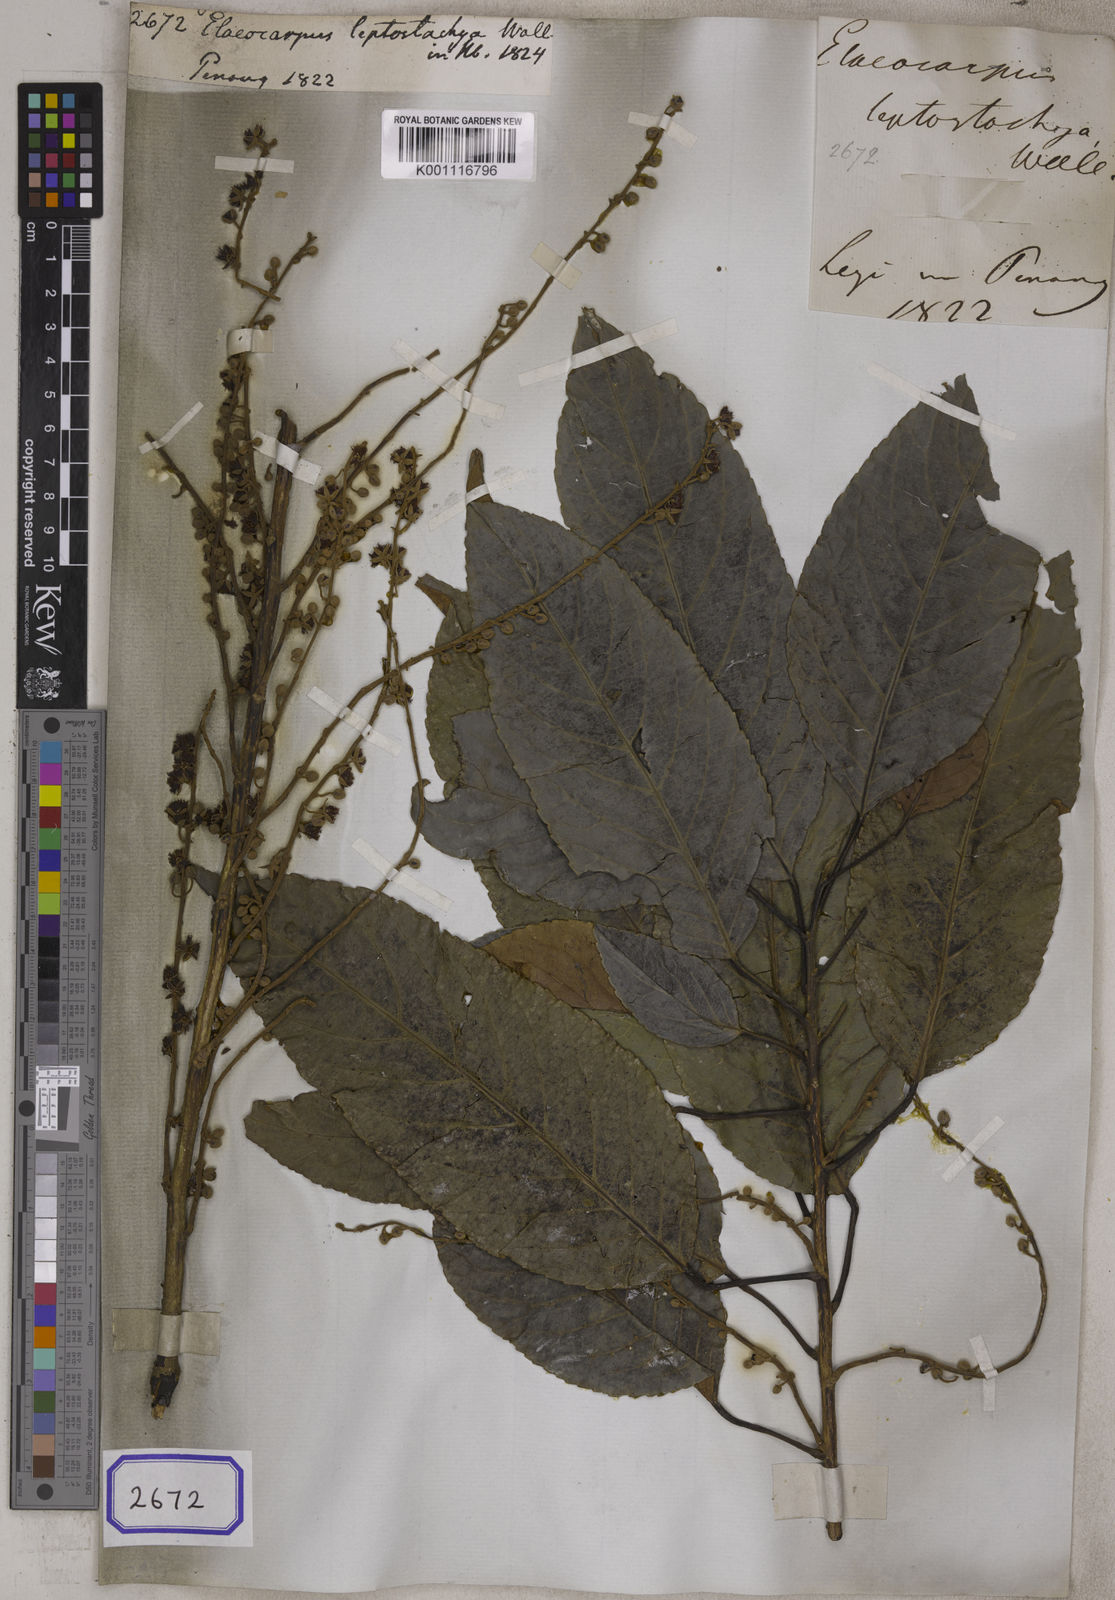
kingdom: Plantae
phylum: Tracheophyta
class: Magnoliopsida
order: Oxalidales
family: Elaeocarpaceae
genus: Elaeocarpus
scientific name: Elaeocarpus
